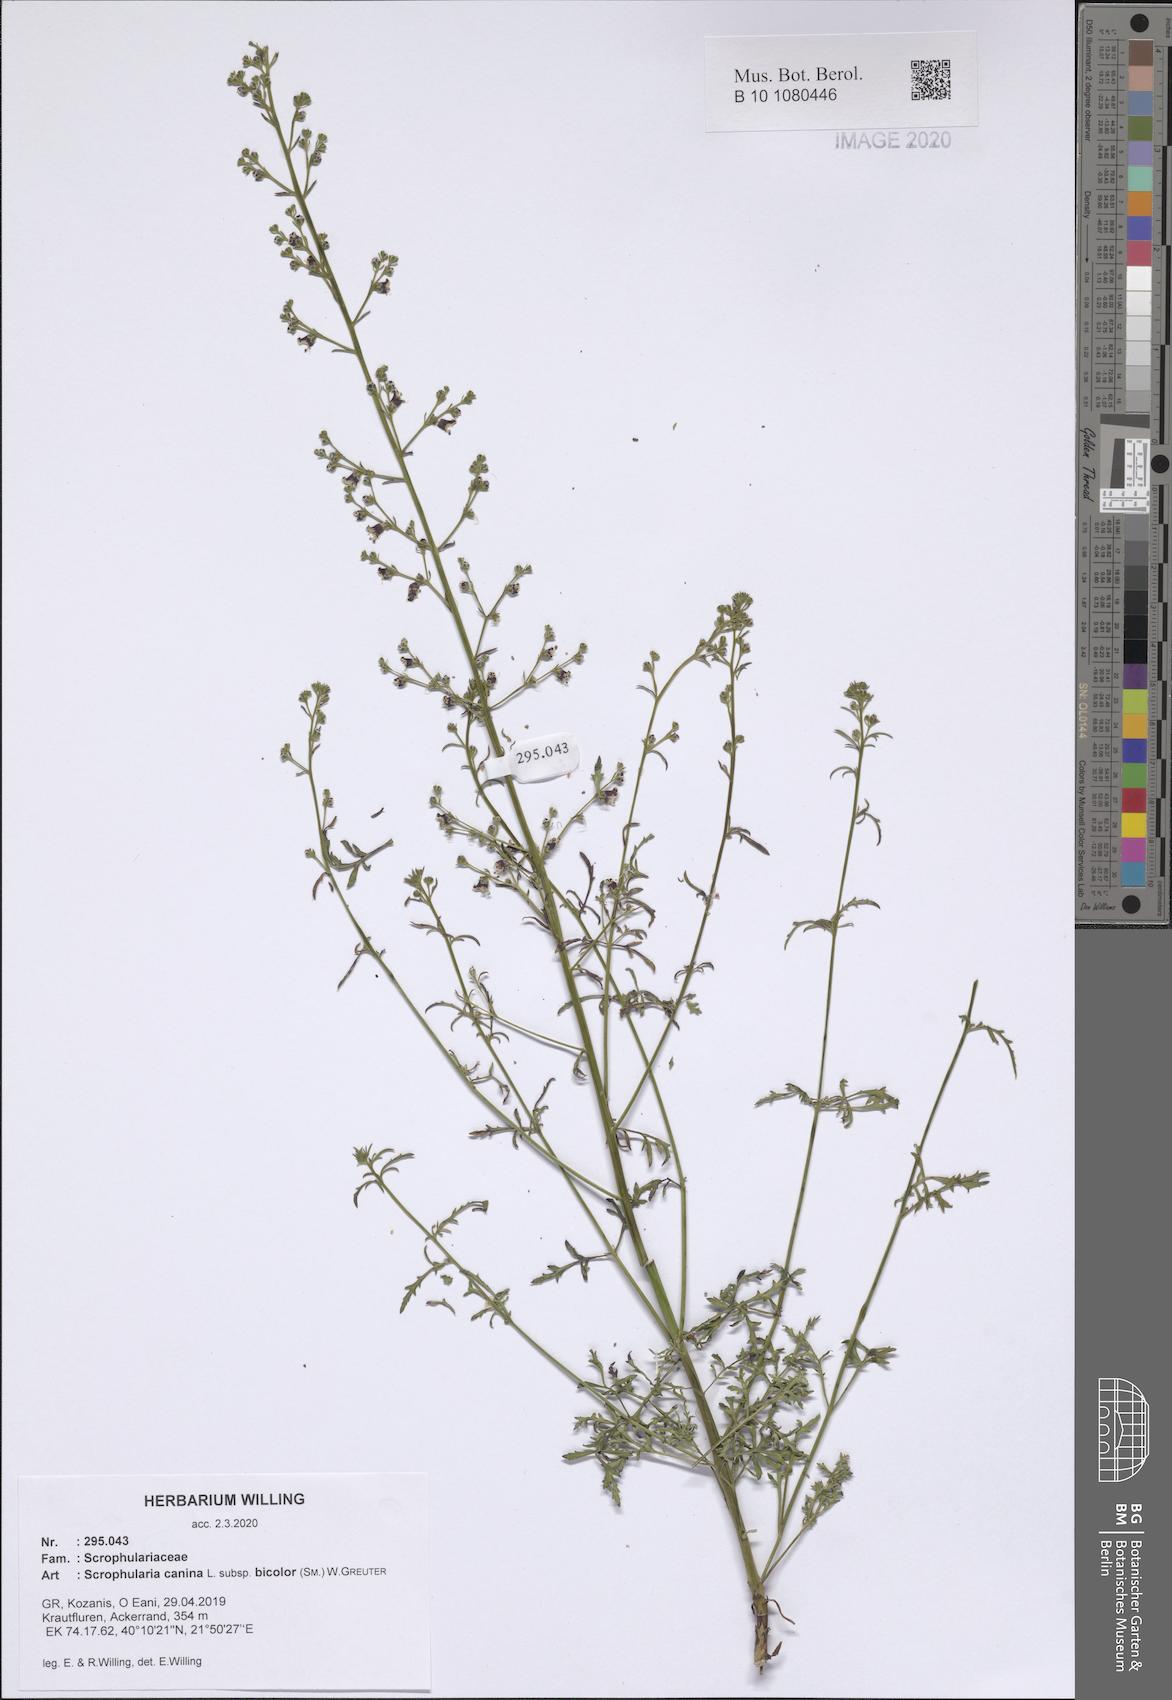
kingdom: Plantae
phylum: Tracheophyta
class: Magnoliopsida
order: Lamiales
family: Scrophulariaceae
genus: Scrophularia
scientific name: Scrophularia canina
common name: French figwort
